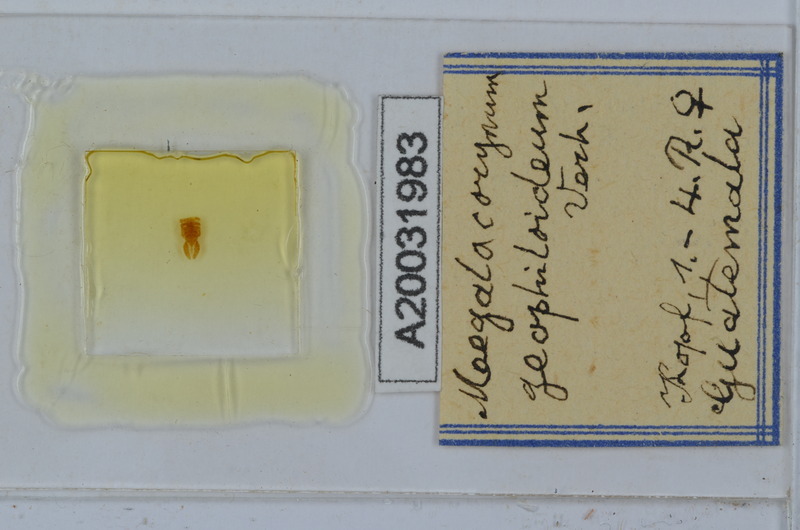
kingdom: Animalia
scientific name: Animalia
